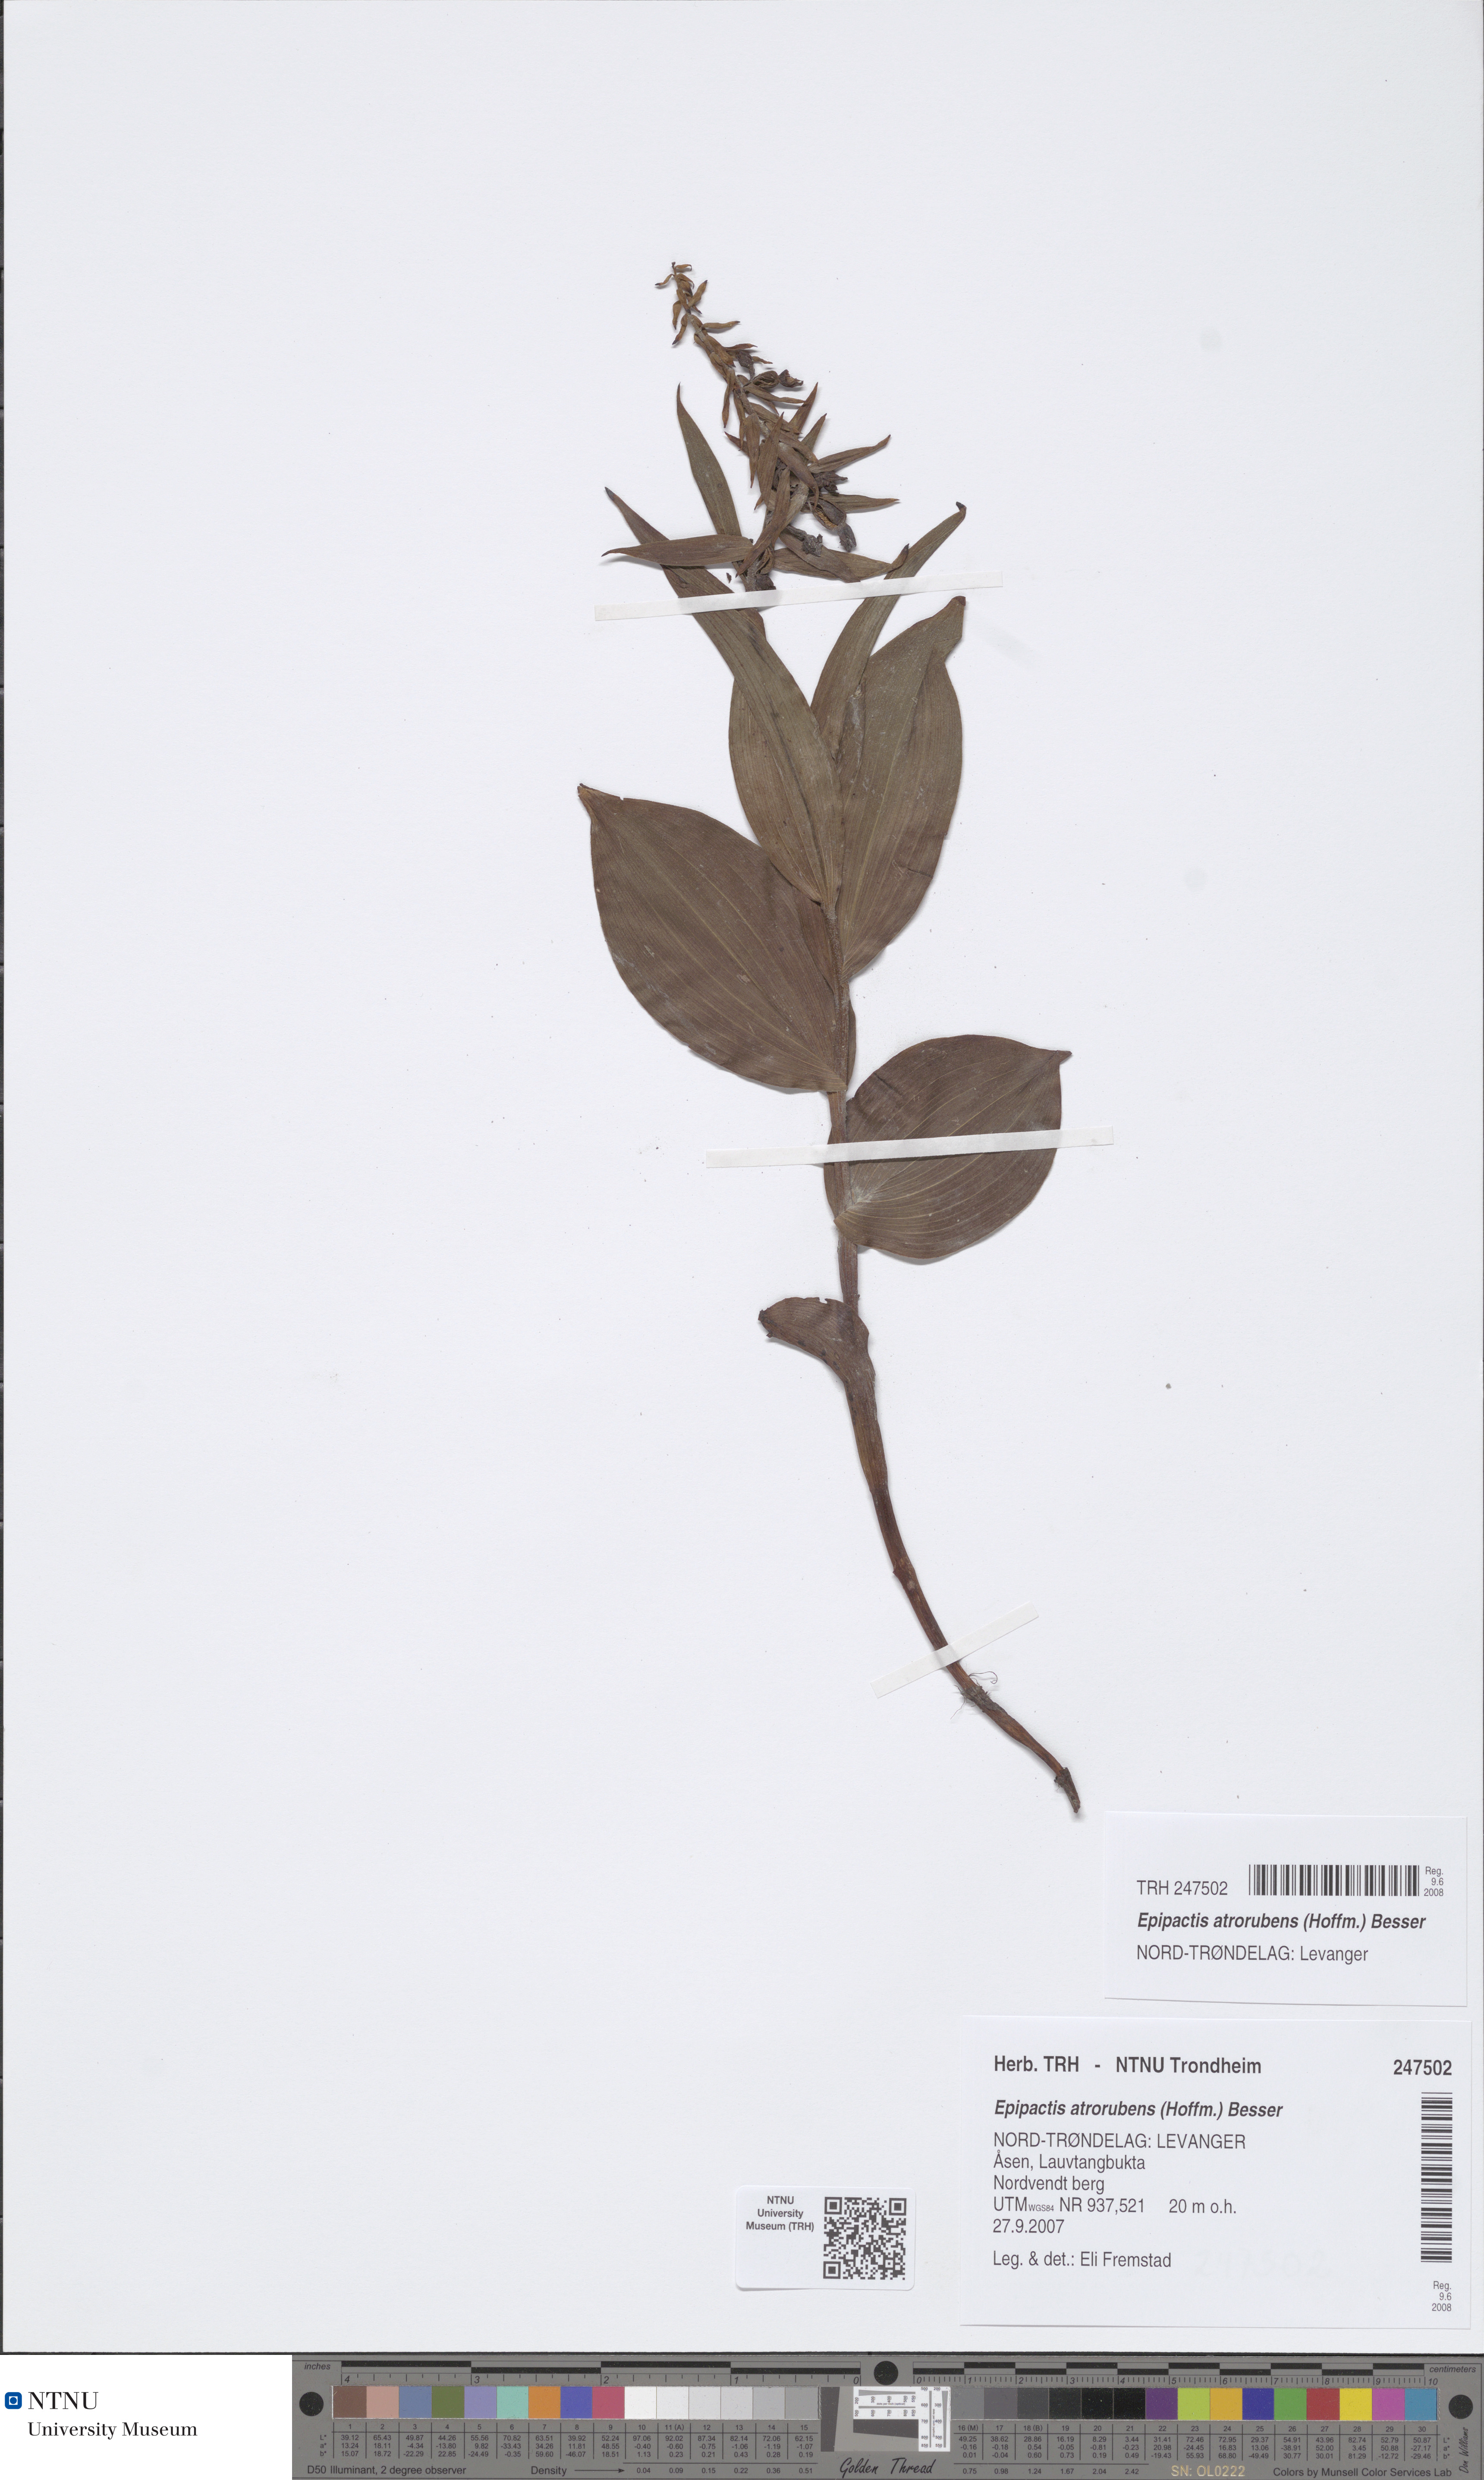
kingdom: Plantae
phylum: Tracheophyta
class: Liliopsida
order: Asparagales
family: Orchidaceae
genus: Epipactis
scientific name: Epipactis atrorubens
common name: Dark-red helleborine
